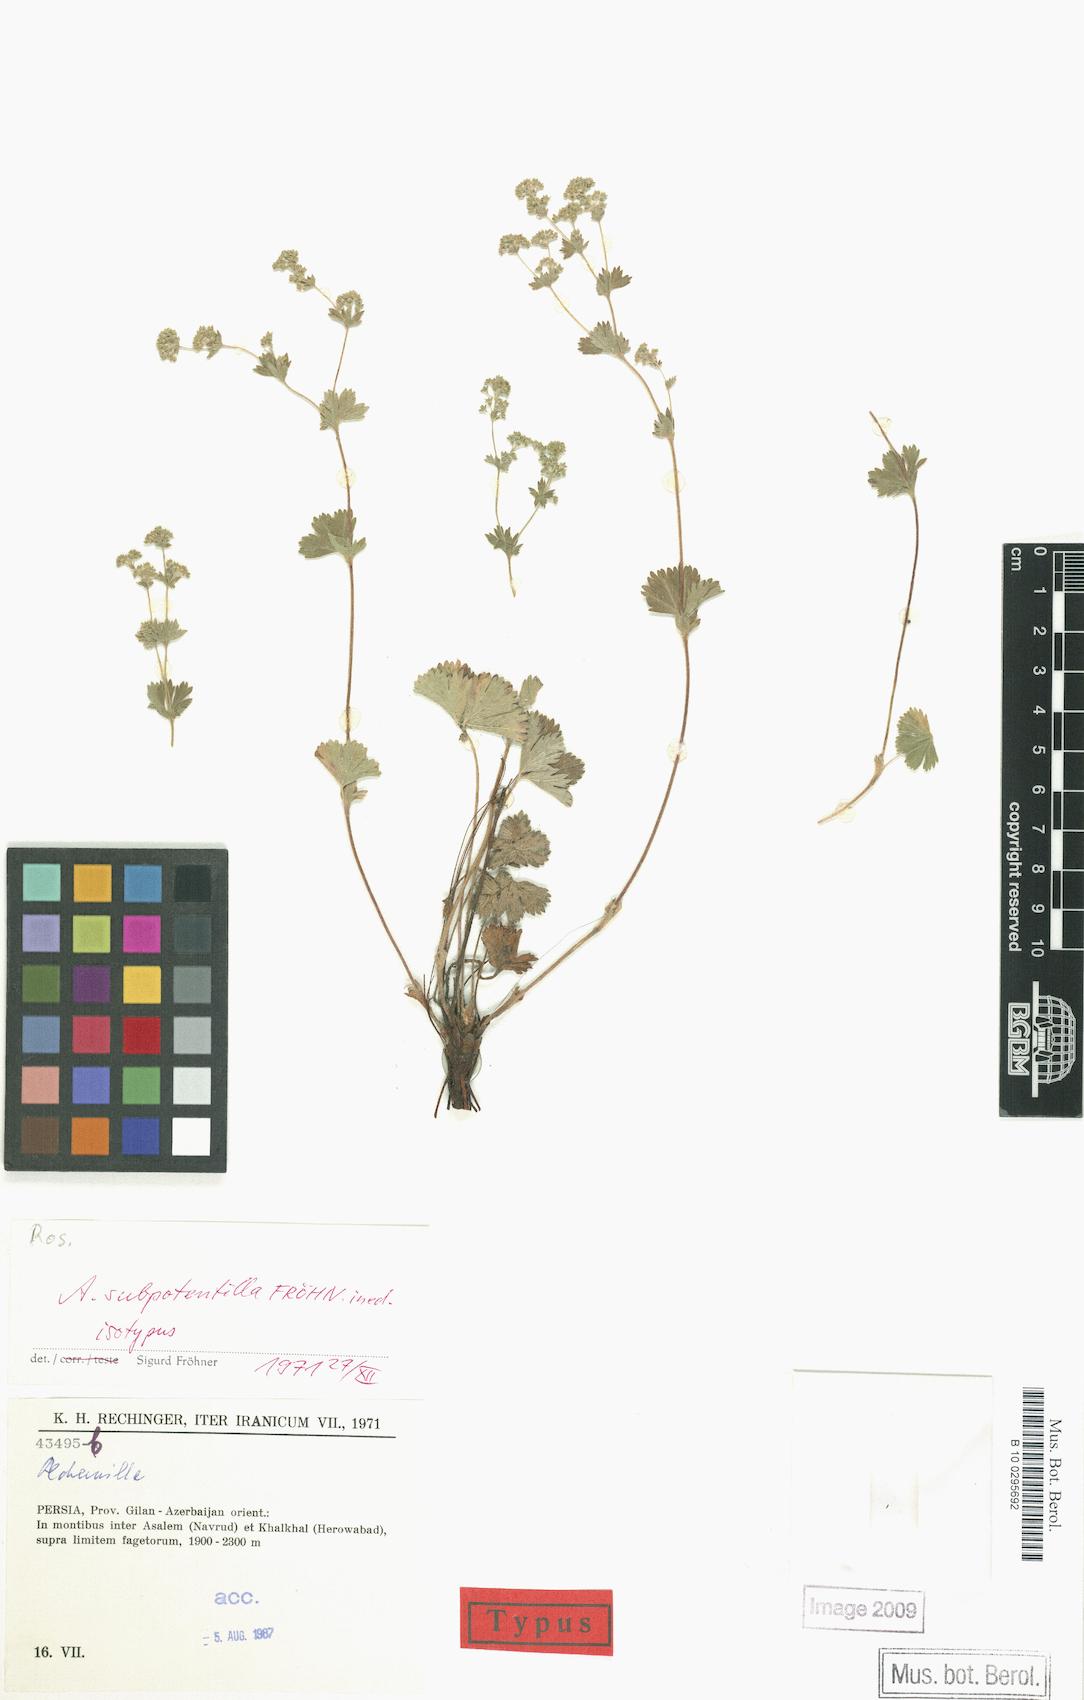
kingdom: Plantae
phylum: Tracheophyta
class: Magnoliopsida
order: Rosales
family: Rosaceae
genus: Alchemilla
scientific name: Alchemilla
